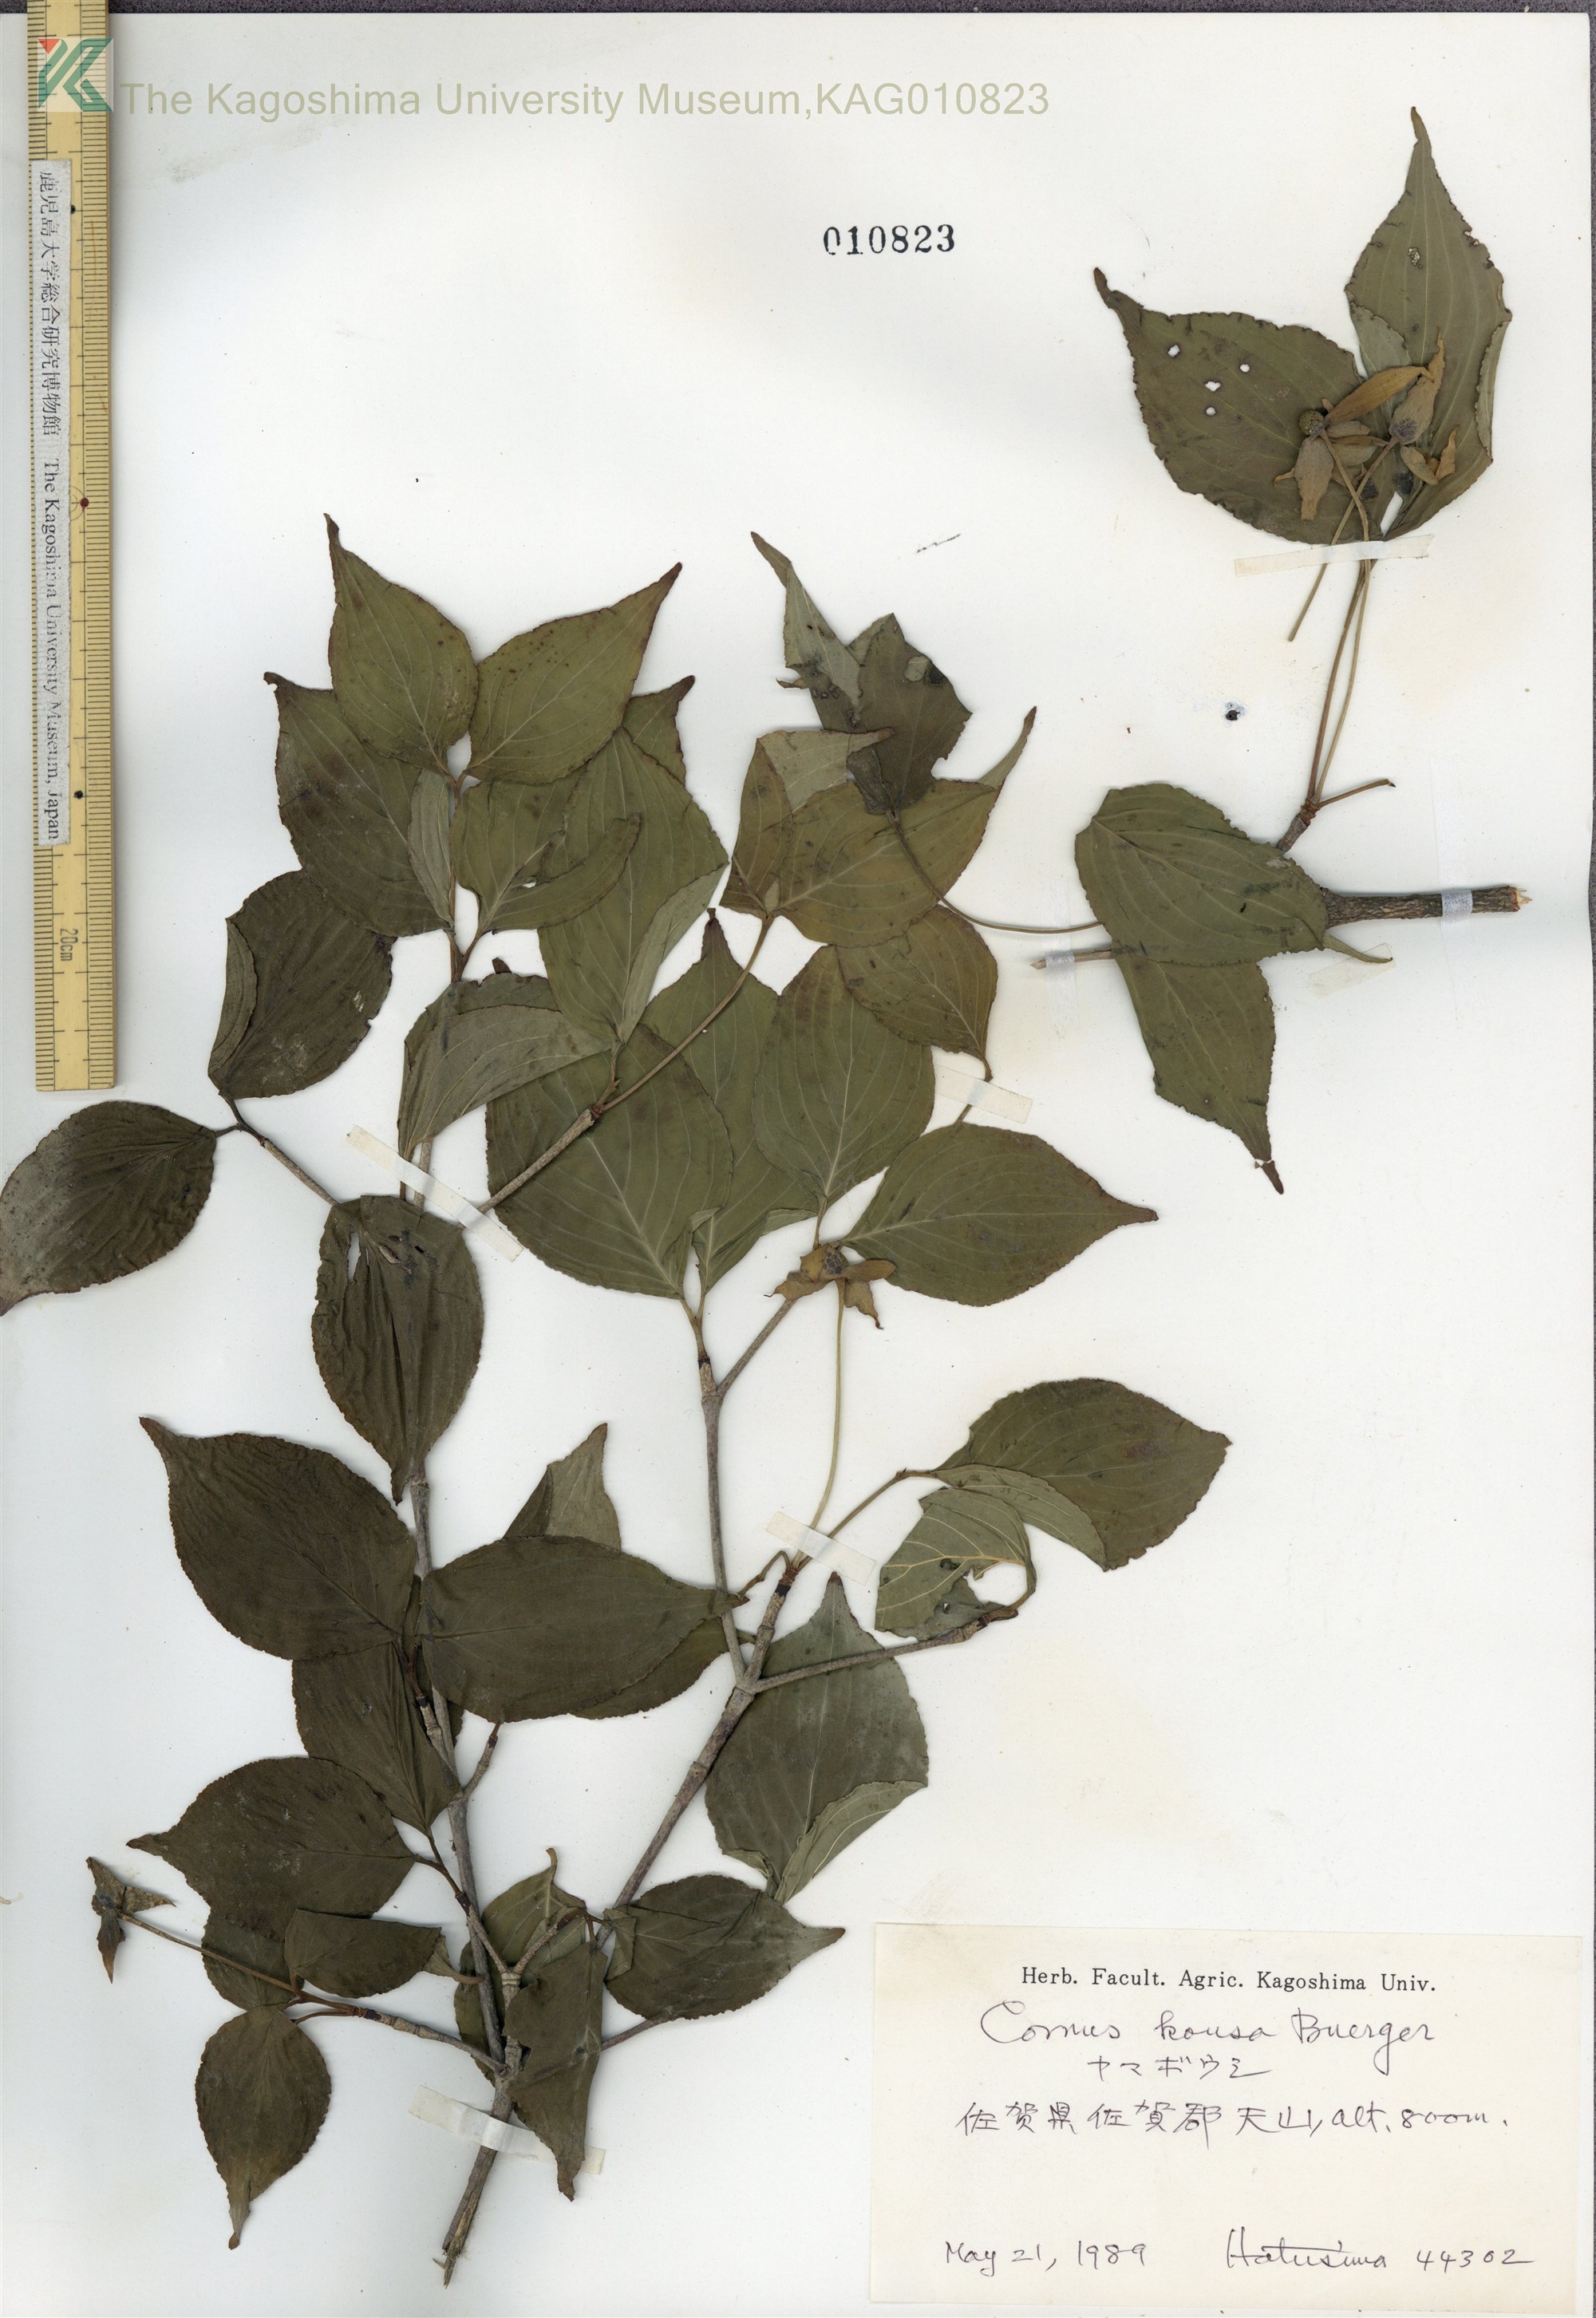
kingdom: Plantae
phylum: Tracheophyta
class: Magnoliopsida
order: Cornales
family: Cornaceae
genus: Cornus
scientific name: Cornus kousa
